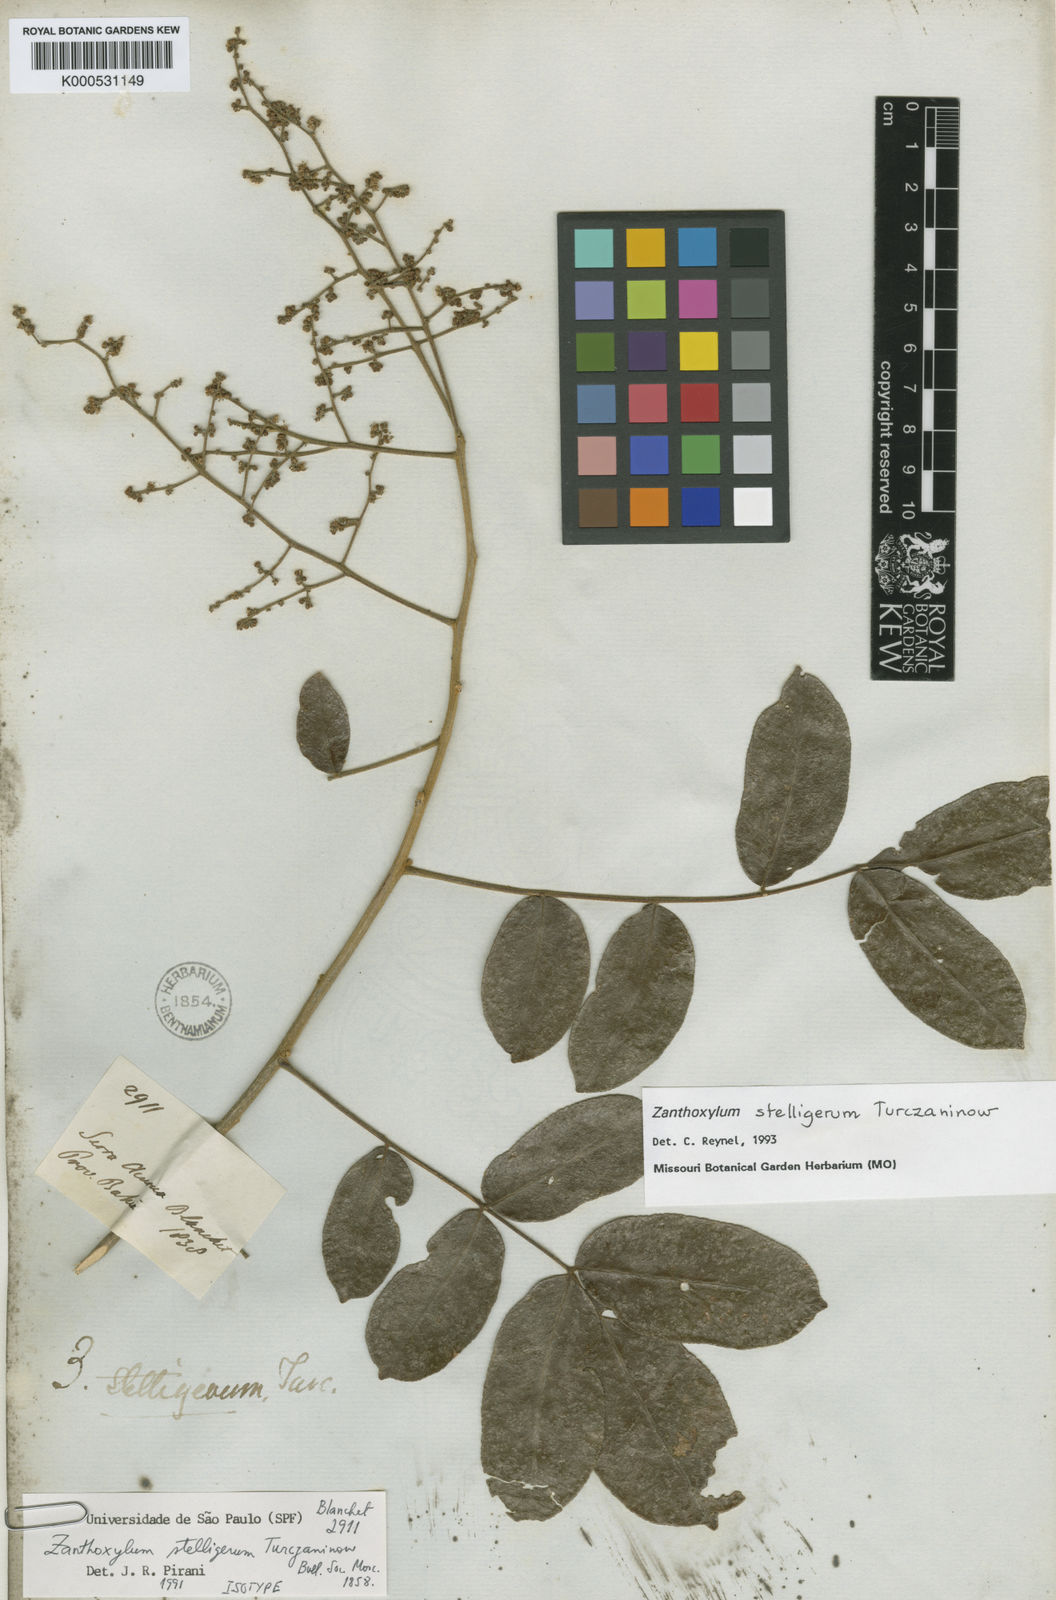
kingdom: Plantae
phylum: Tracheophyta
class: Magnoliopsida
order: Sapindales
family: Rutaceae
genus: Zanthoxylum
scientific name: Zanthoxylum stelligerum
